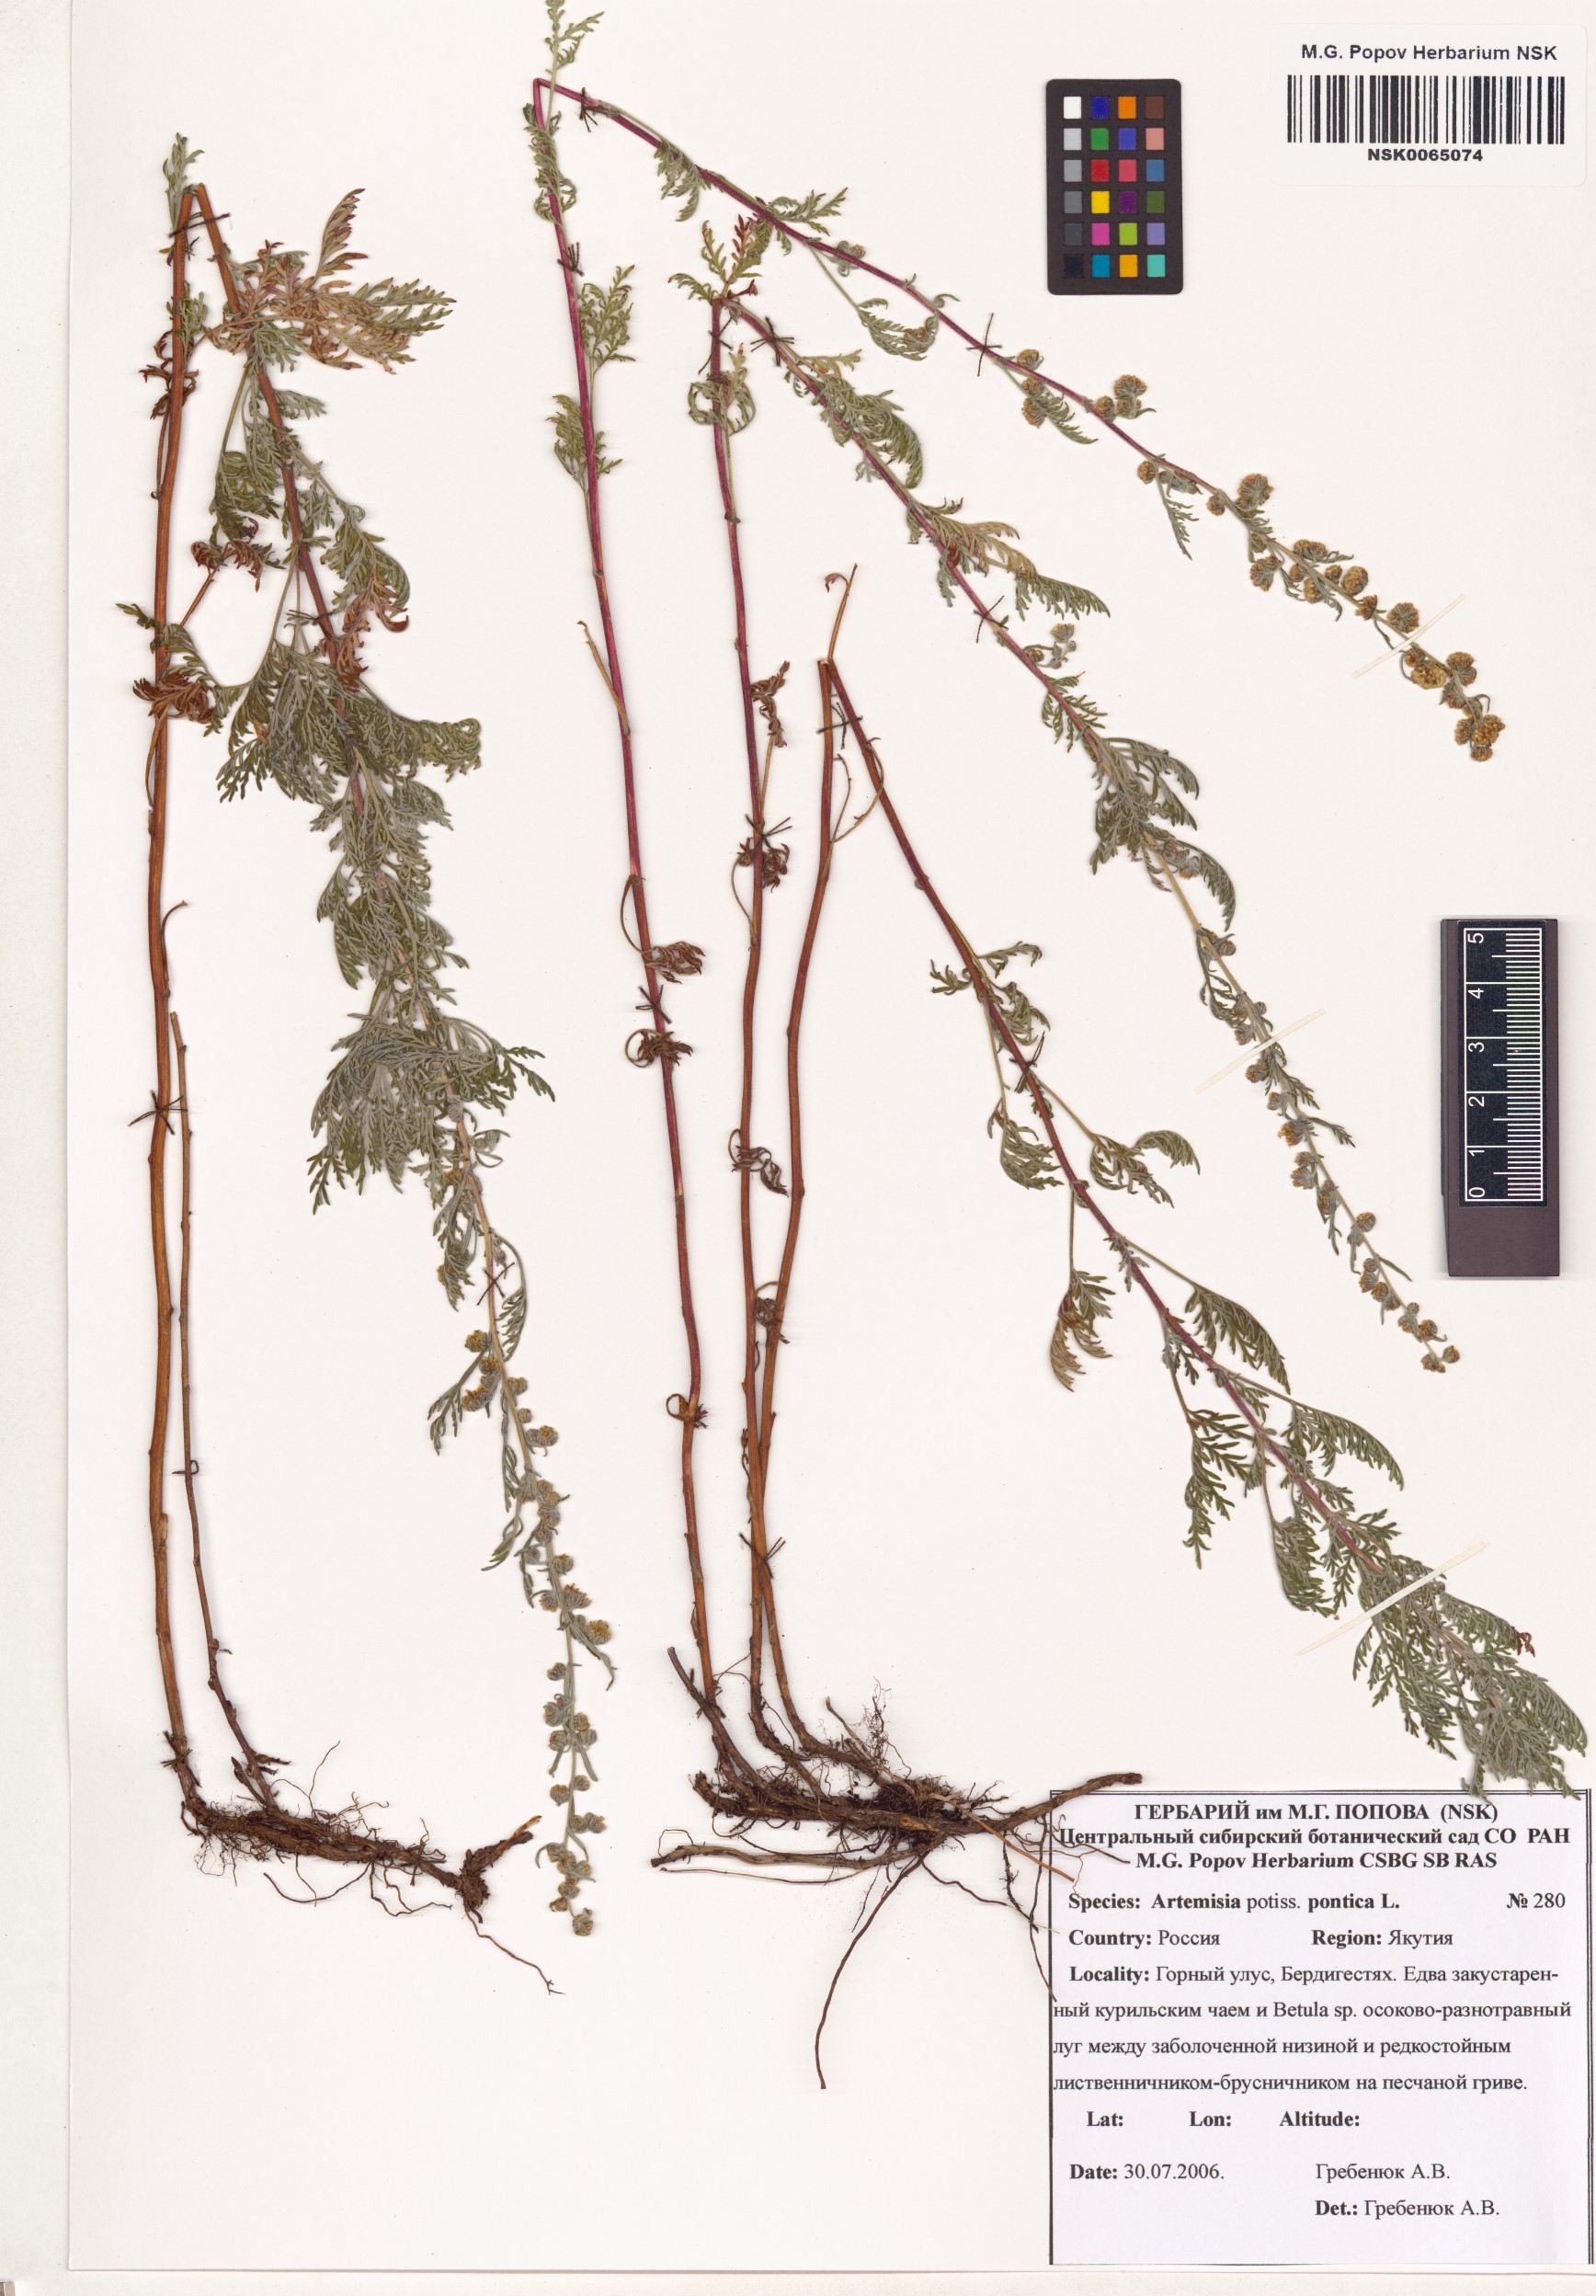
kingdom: Plantae
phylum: Tracheophyta
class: Magnoliopsida
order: Asterales
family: Asteraceae
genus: Artemisia
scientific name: Artemisia pontica
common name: Roman wormwood
